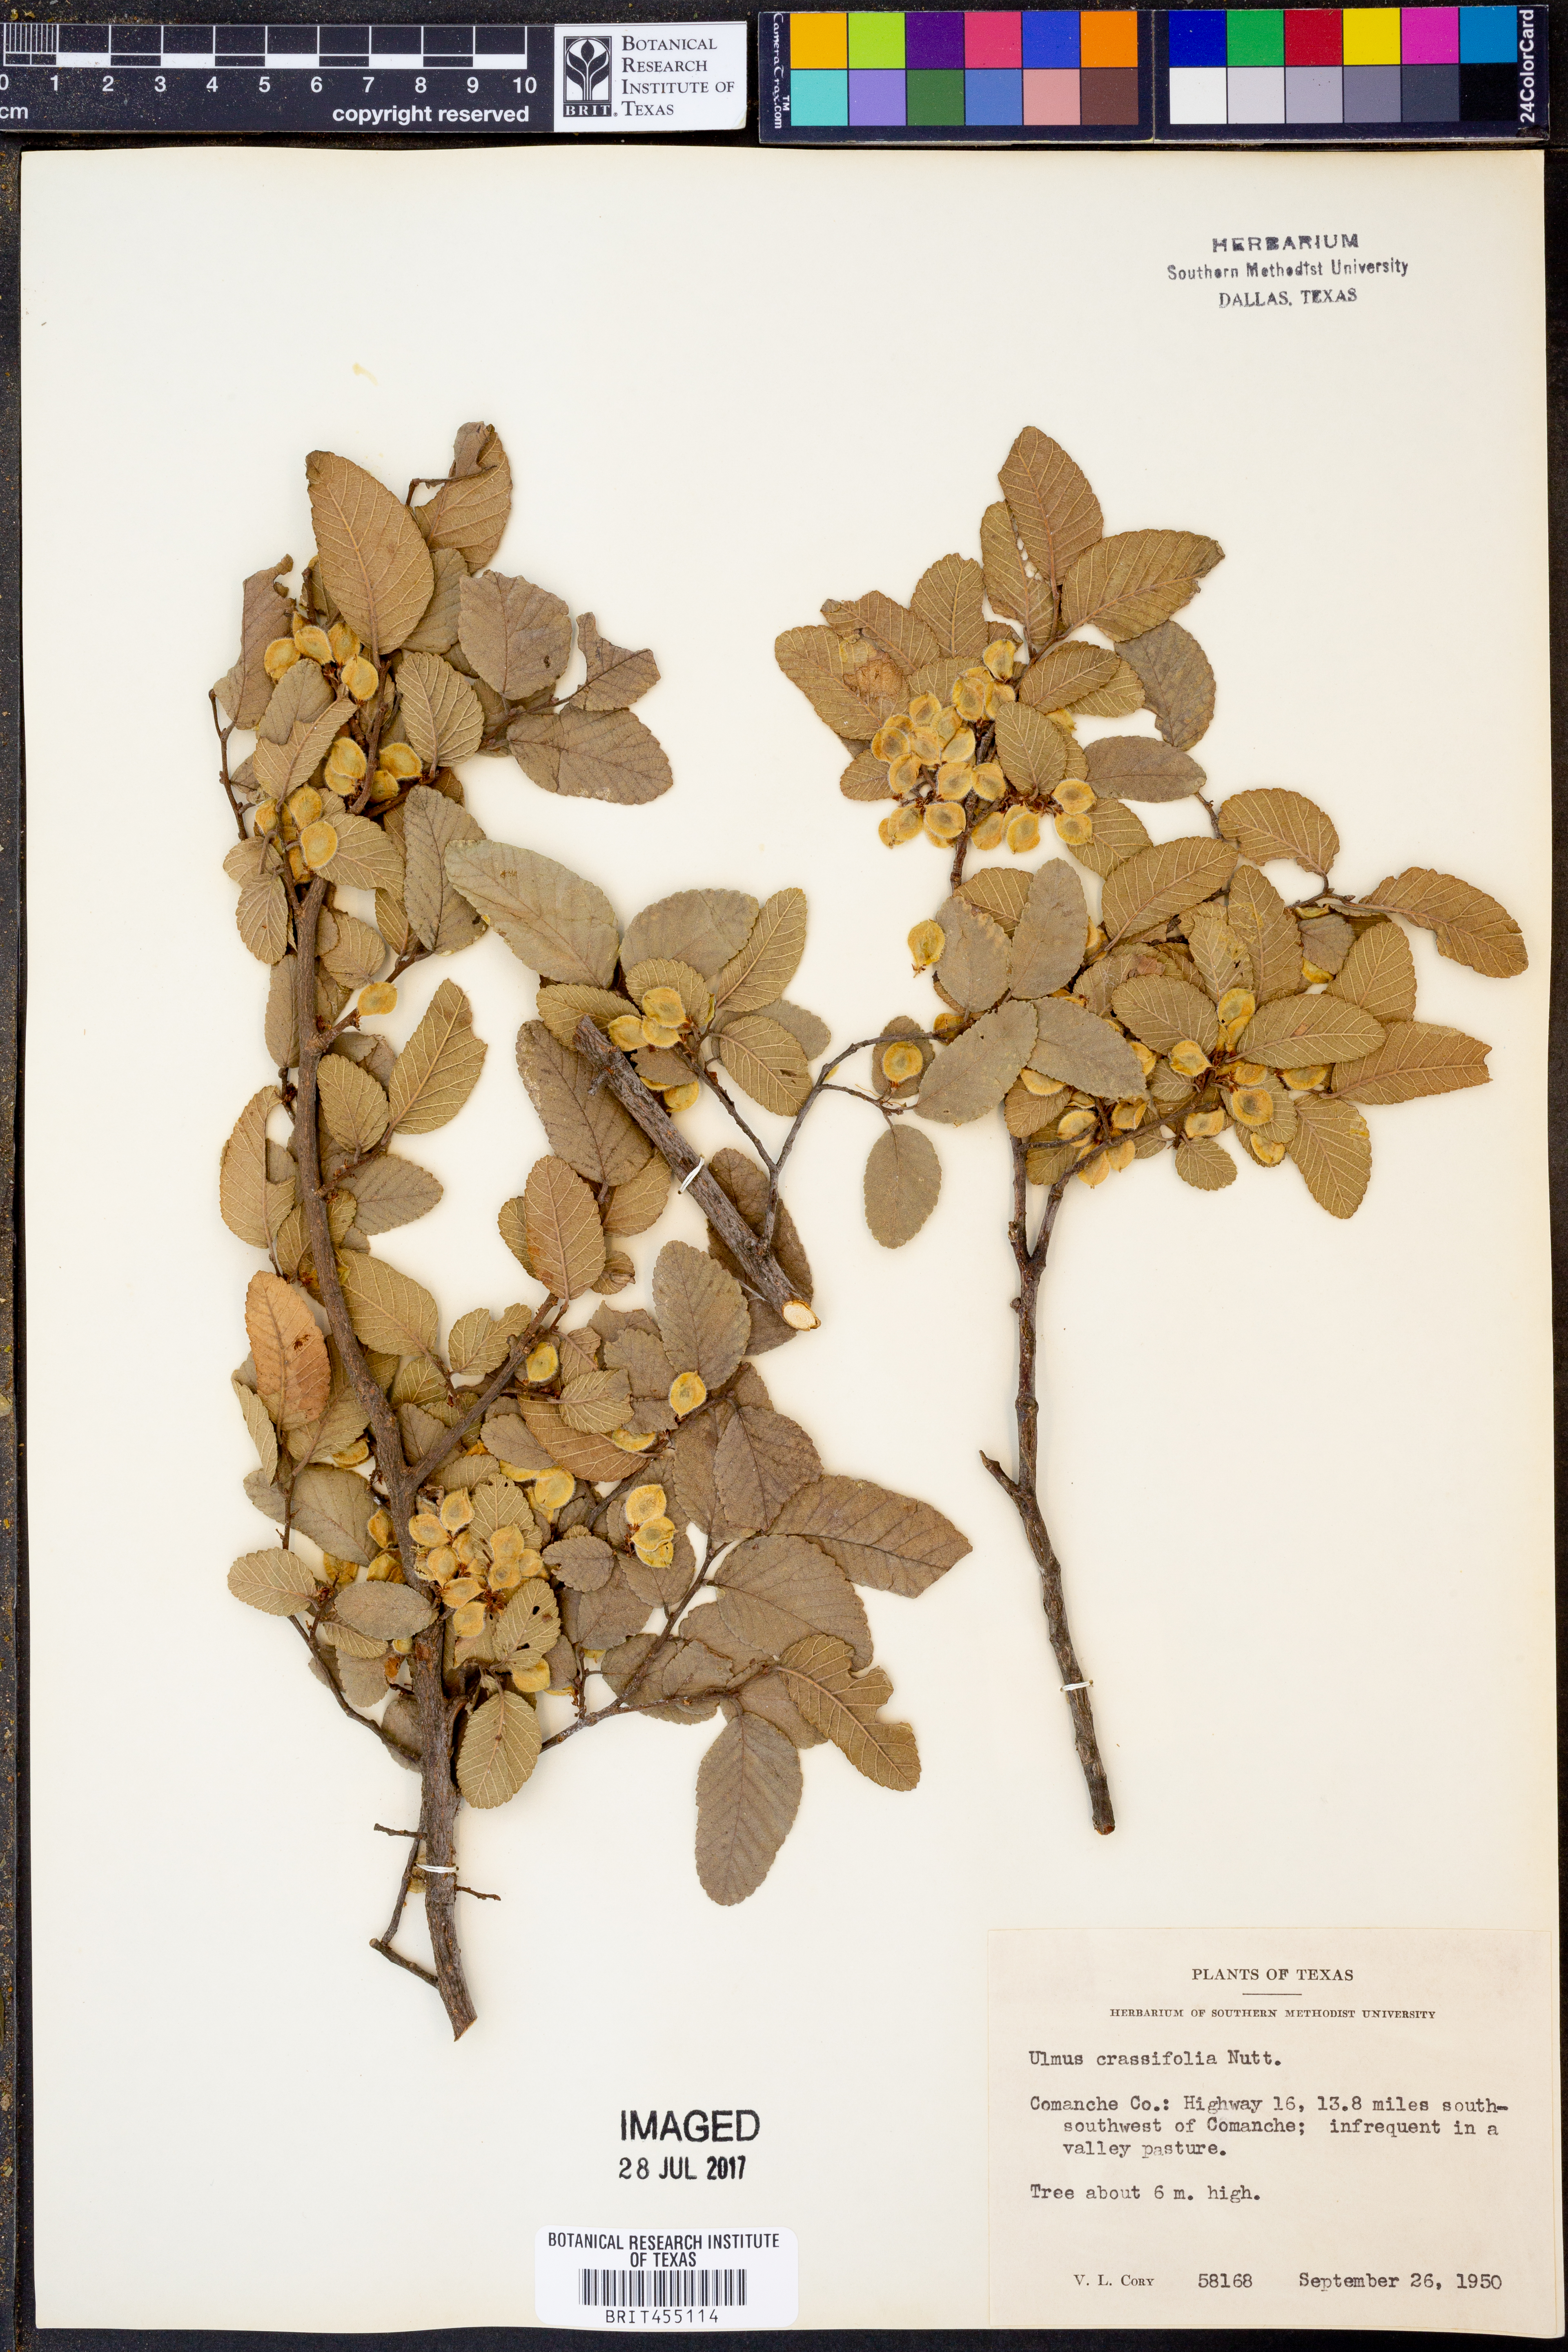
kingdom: Plantae
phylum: Tracheophyta
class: Magnoliopsida
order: Rosales
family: Ulmaceae
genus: Ulmus
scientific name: Ulmus crassifolia
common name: Basket elm
